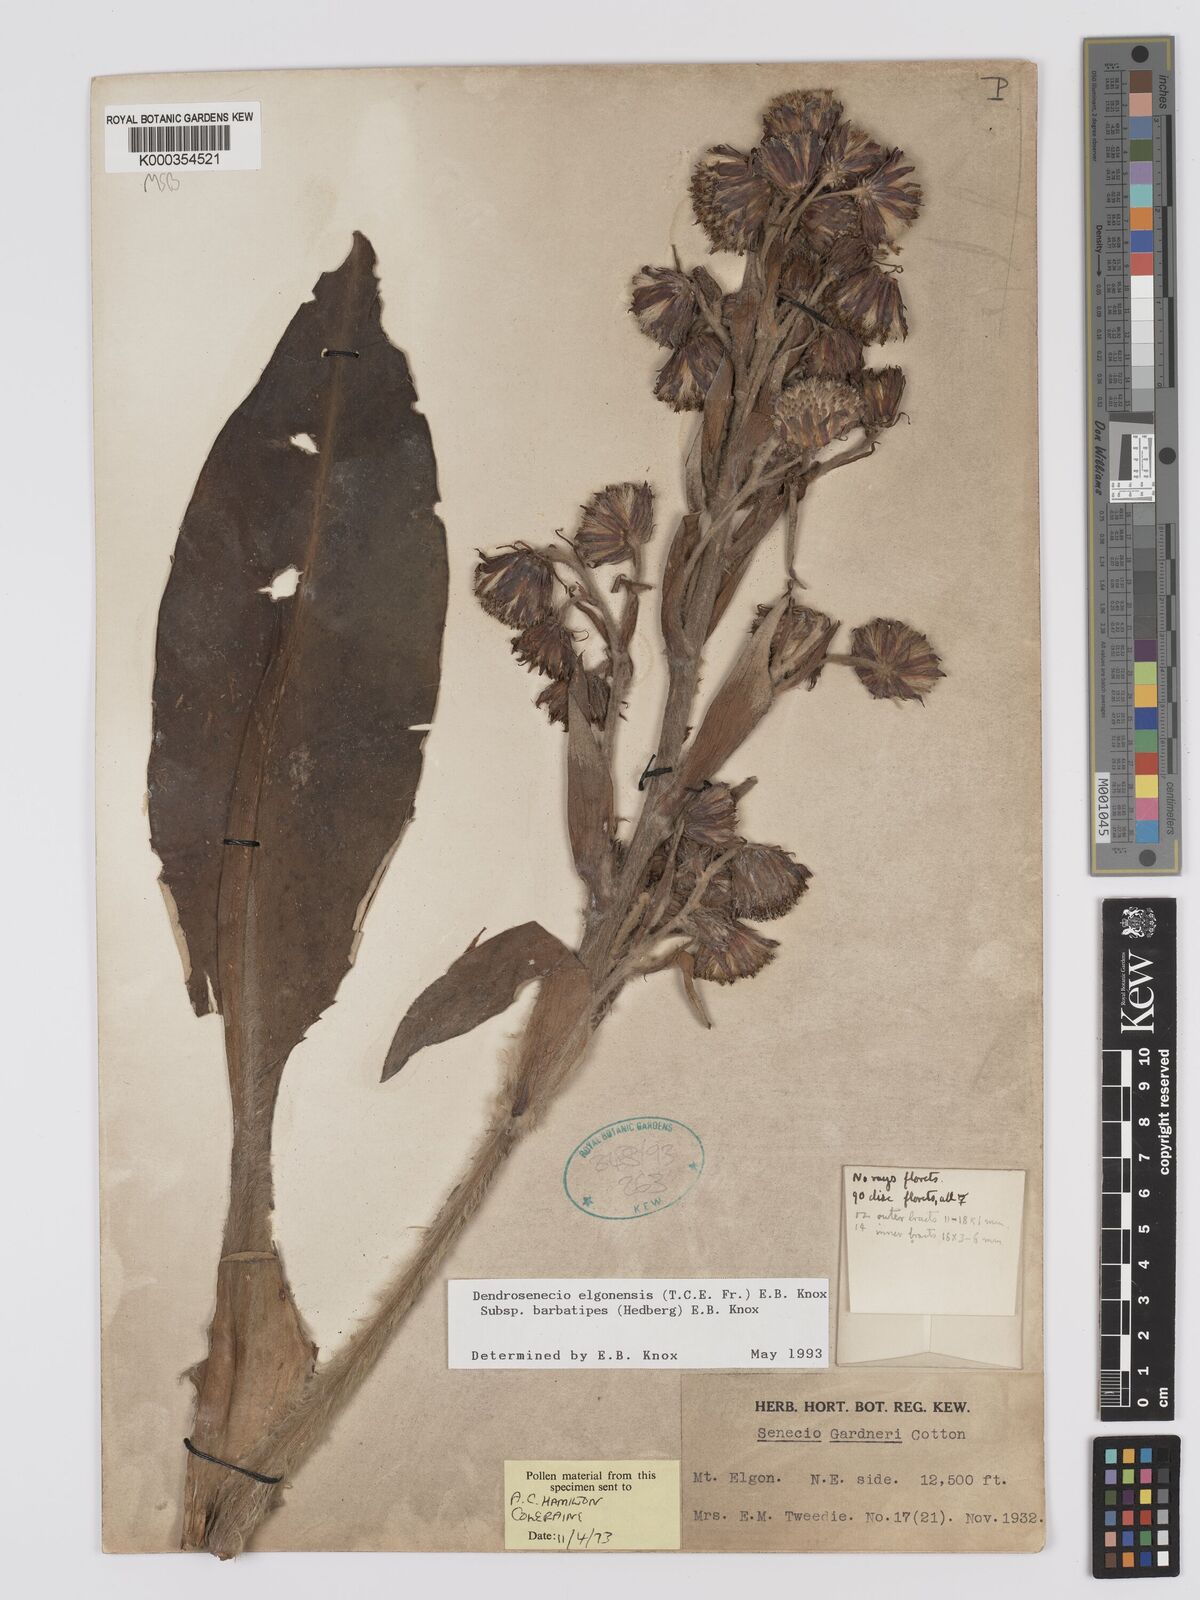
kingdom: Plantae
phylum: Tracheophyta
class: Magnoliopsida
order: Asterales
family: Asteraceae
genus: Dendrosenecio
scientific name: Dendrosenecio elgonensis
